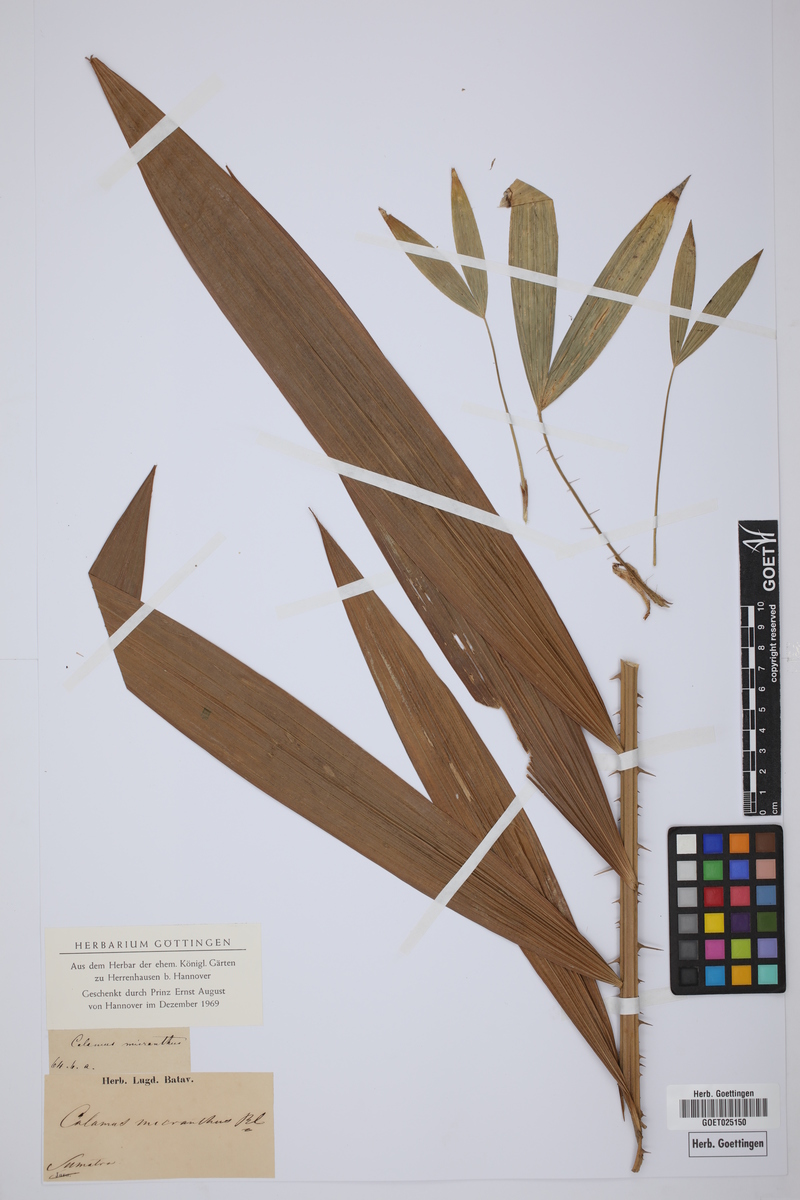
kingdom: Plantae
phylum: Tracheophyta
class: Liliopsida
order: Arecales
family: Arecaceae
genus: Calamus
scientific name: Calamus micranthus
